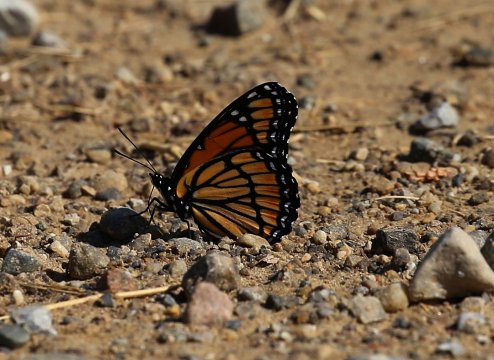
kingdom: Animalia
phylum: Arthropoda
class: Insecta
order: Lepidoptera
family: Nymphalidae
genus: Limenitis
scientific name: Limenitis archippus
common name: Viceroy
